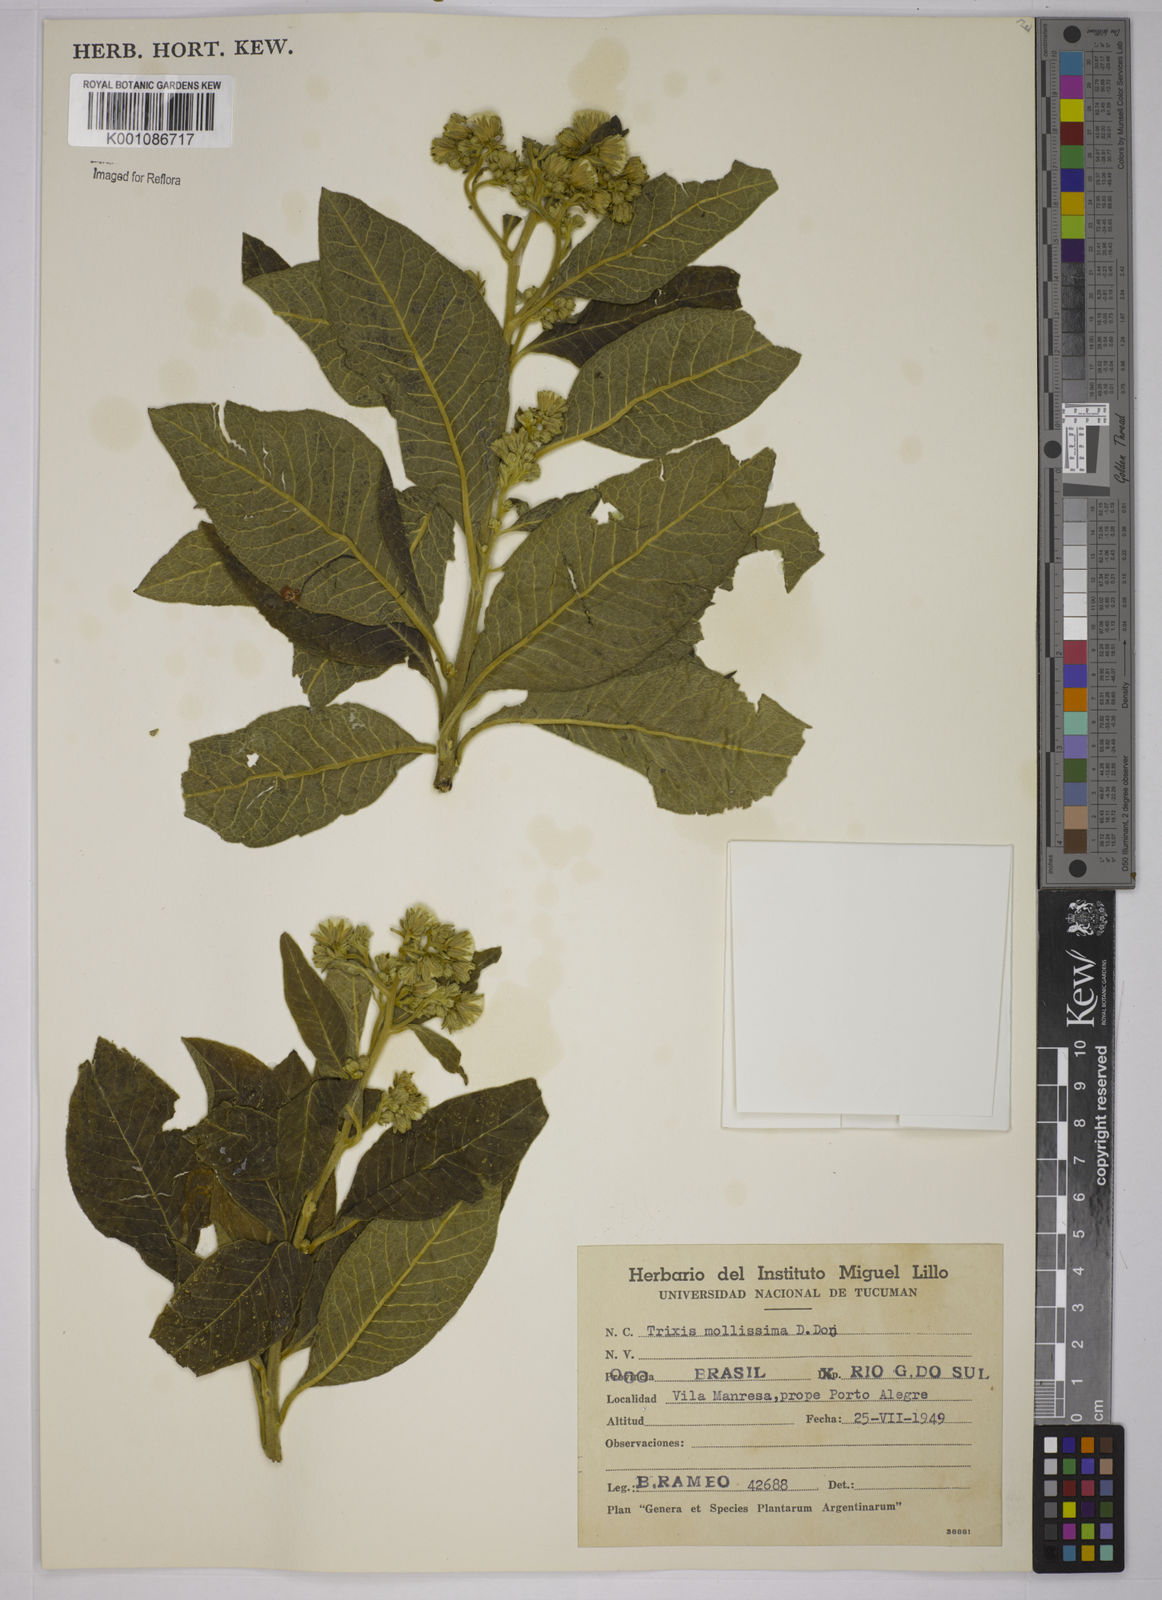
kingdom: Plantae
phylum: Tracheophyta
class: Magnoliopsida
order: Asterales
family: Asteraceae
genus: Trixis
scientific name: Trixis praestans
